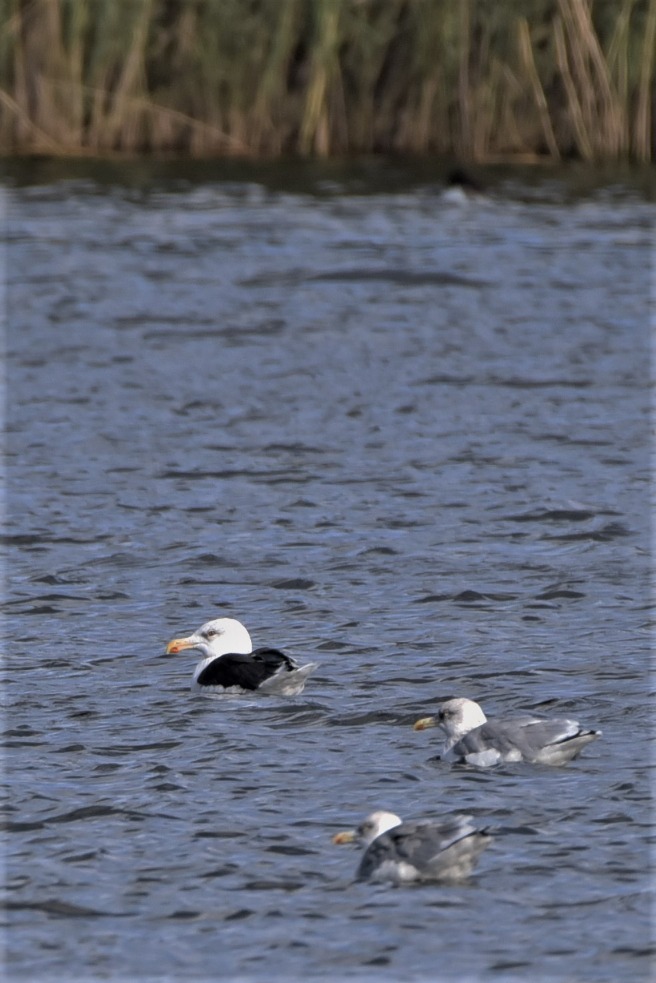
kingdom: Animalia
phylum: Chordata
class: Aves
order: Charadriiformes
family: Laridae
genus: Larus
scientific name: Larus marinus
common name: Svartbag
